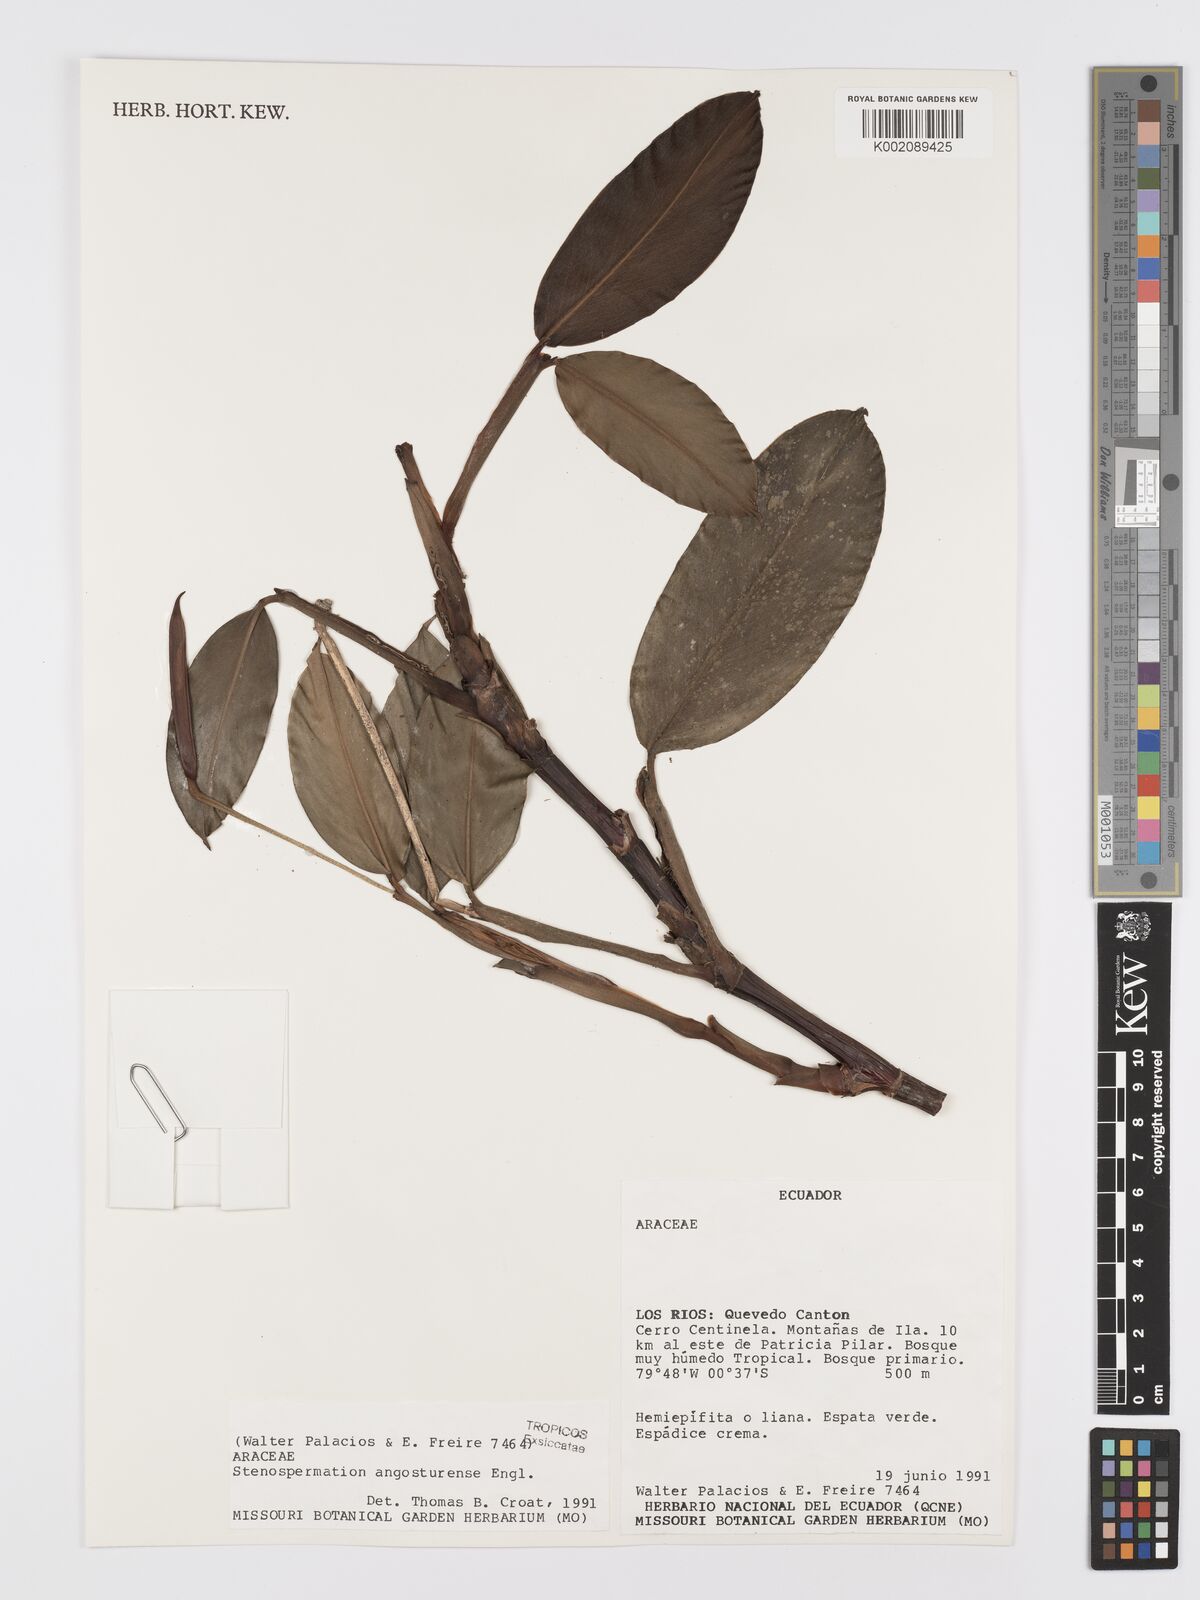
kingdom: Plantae
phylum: Tracheophyta
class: Liliopsida
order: Alismatales
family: Araceae
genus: Stenospermation
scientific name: Stenospermation angosturense
